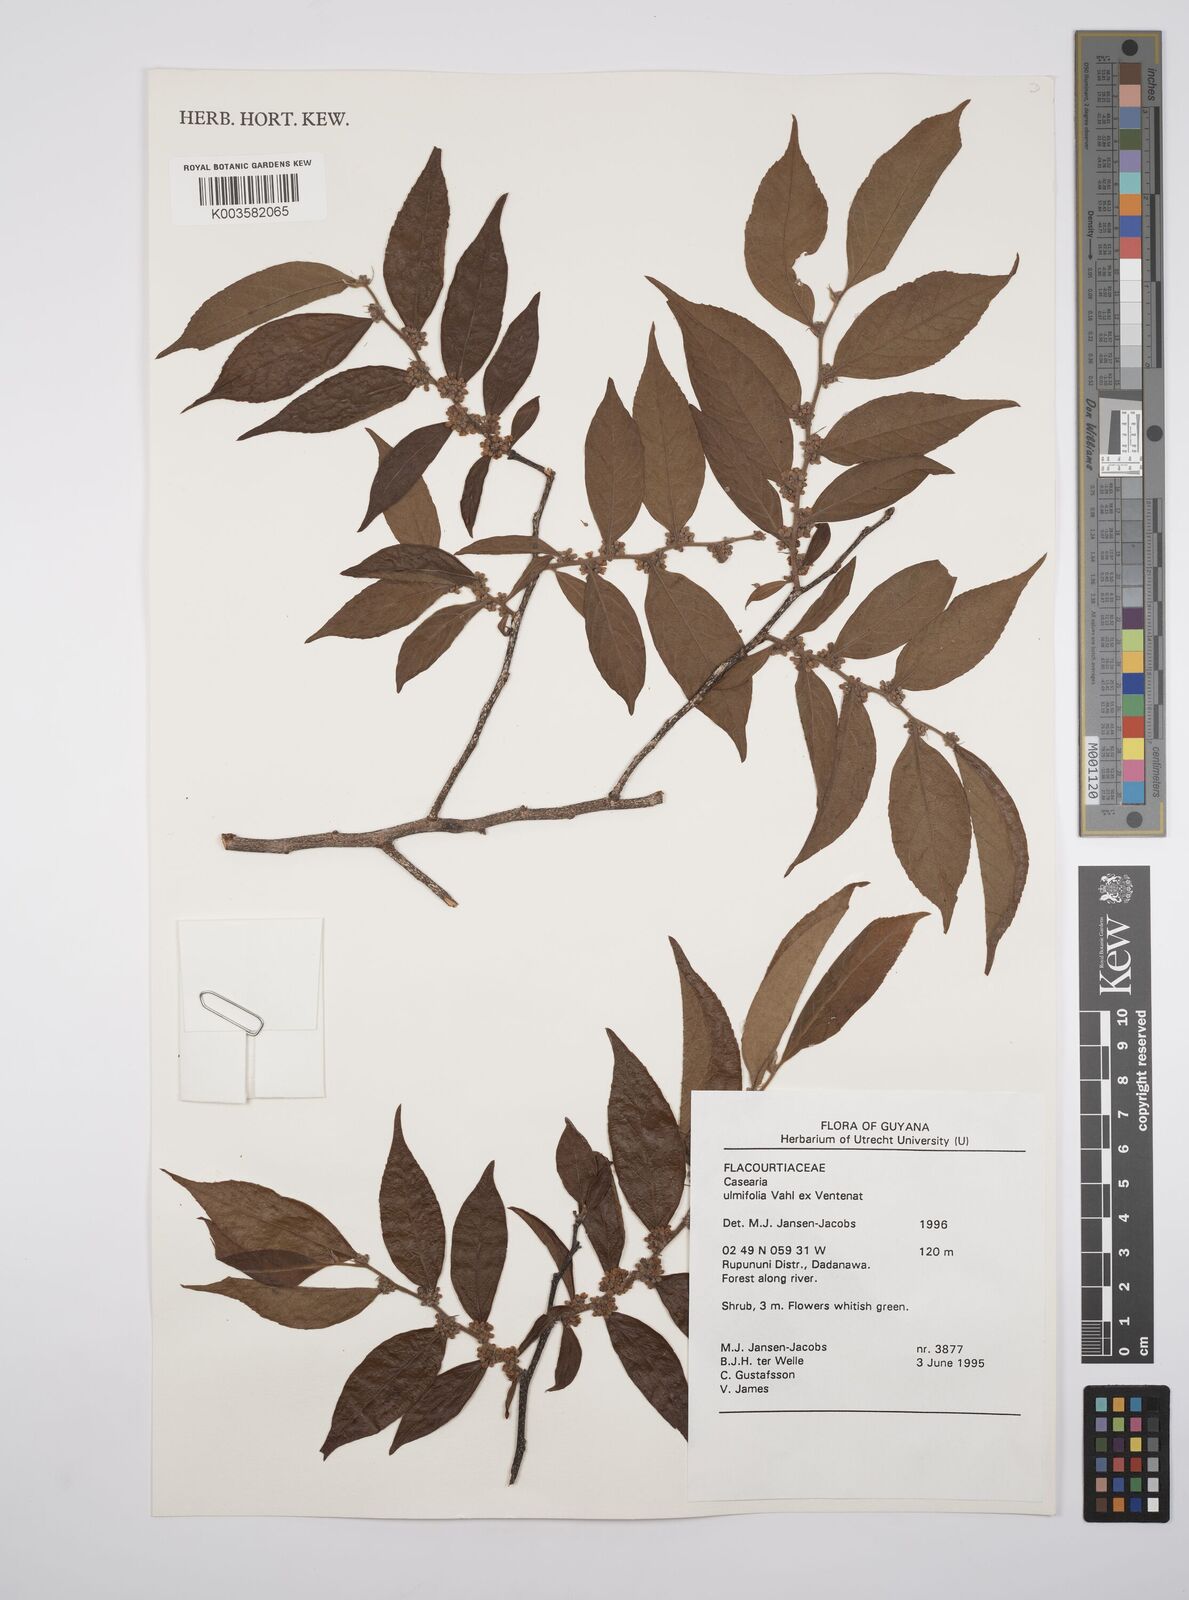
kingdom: Plantae
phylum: Tracheophyta
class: Magnoliopsida
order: Malpighiales
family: Salicaceae
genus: Casearia
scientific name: Casearia ulmifolia
